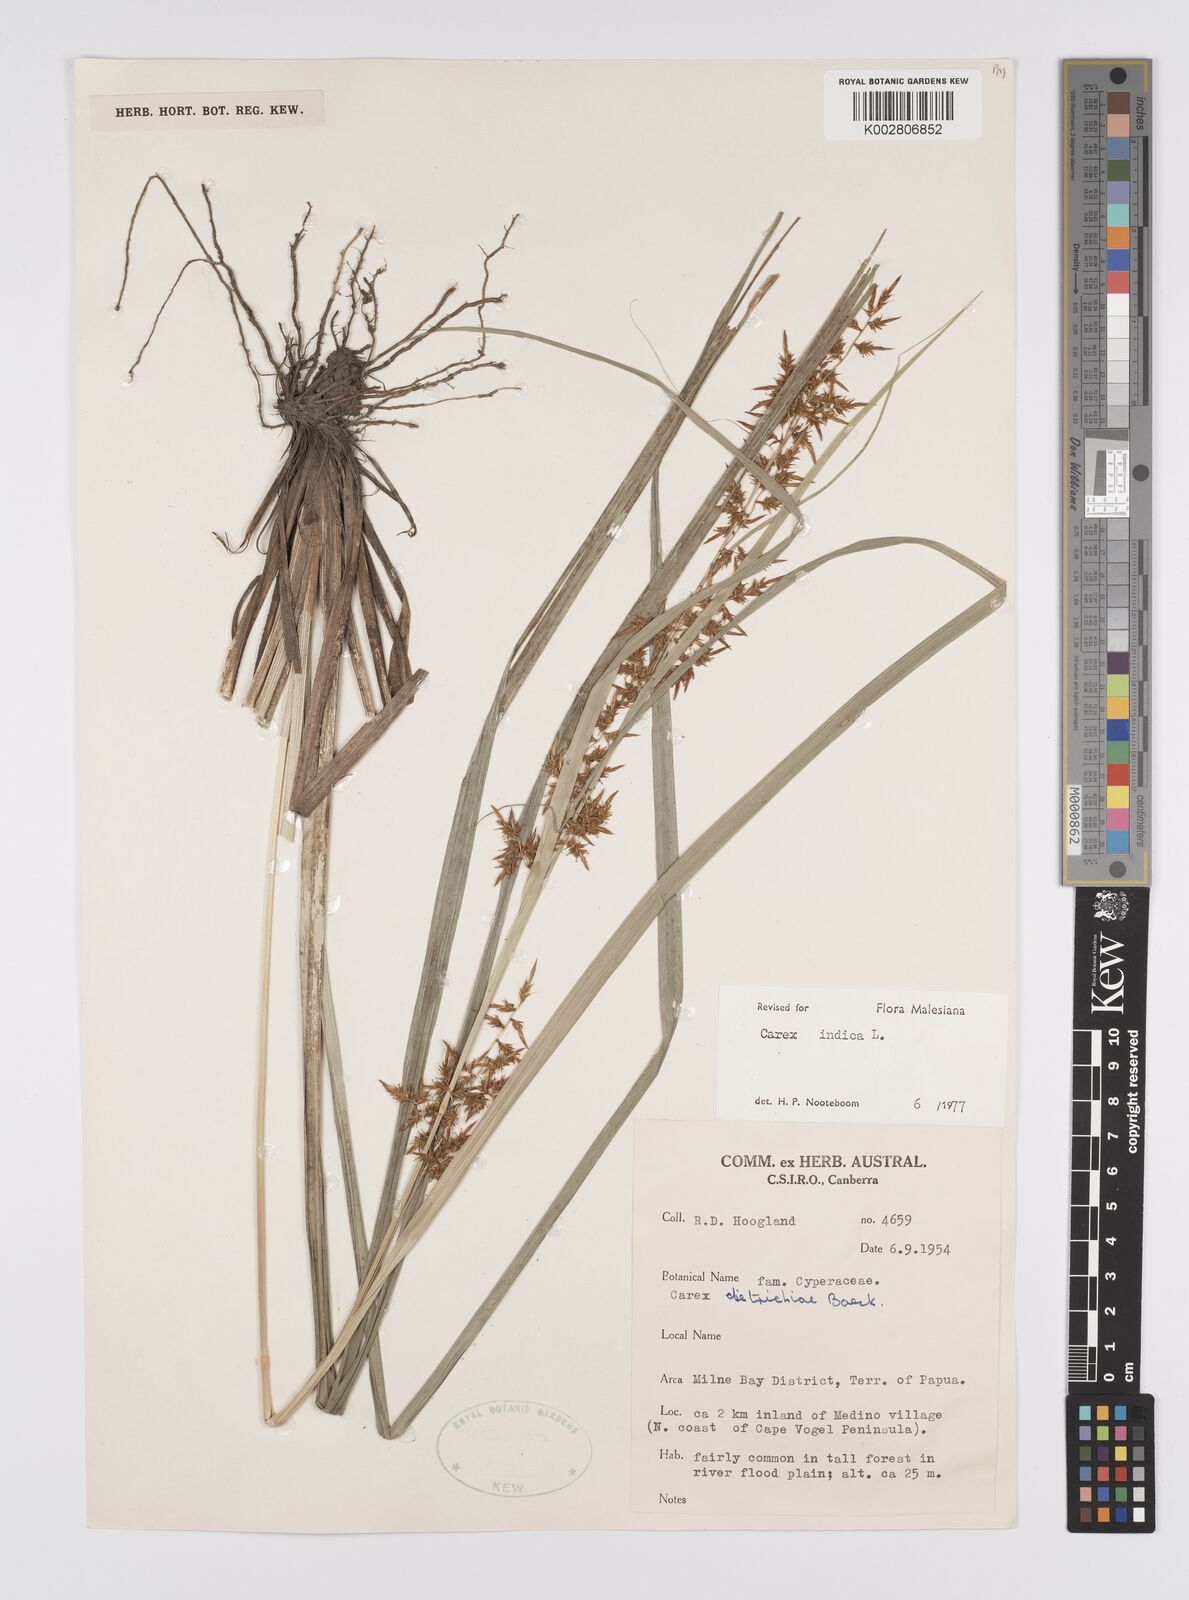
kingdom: Plantae
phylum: Tracheophyta
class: Liliopsida
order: Poales
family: Cyperaceae
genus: Carex
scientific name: Carex indica
